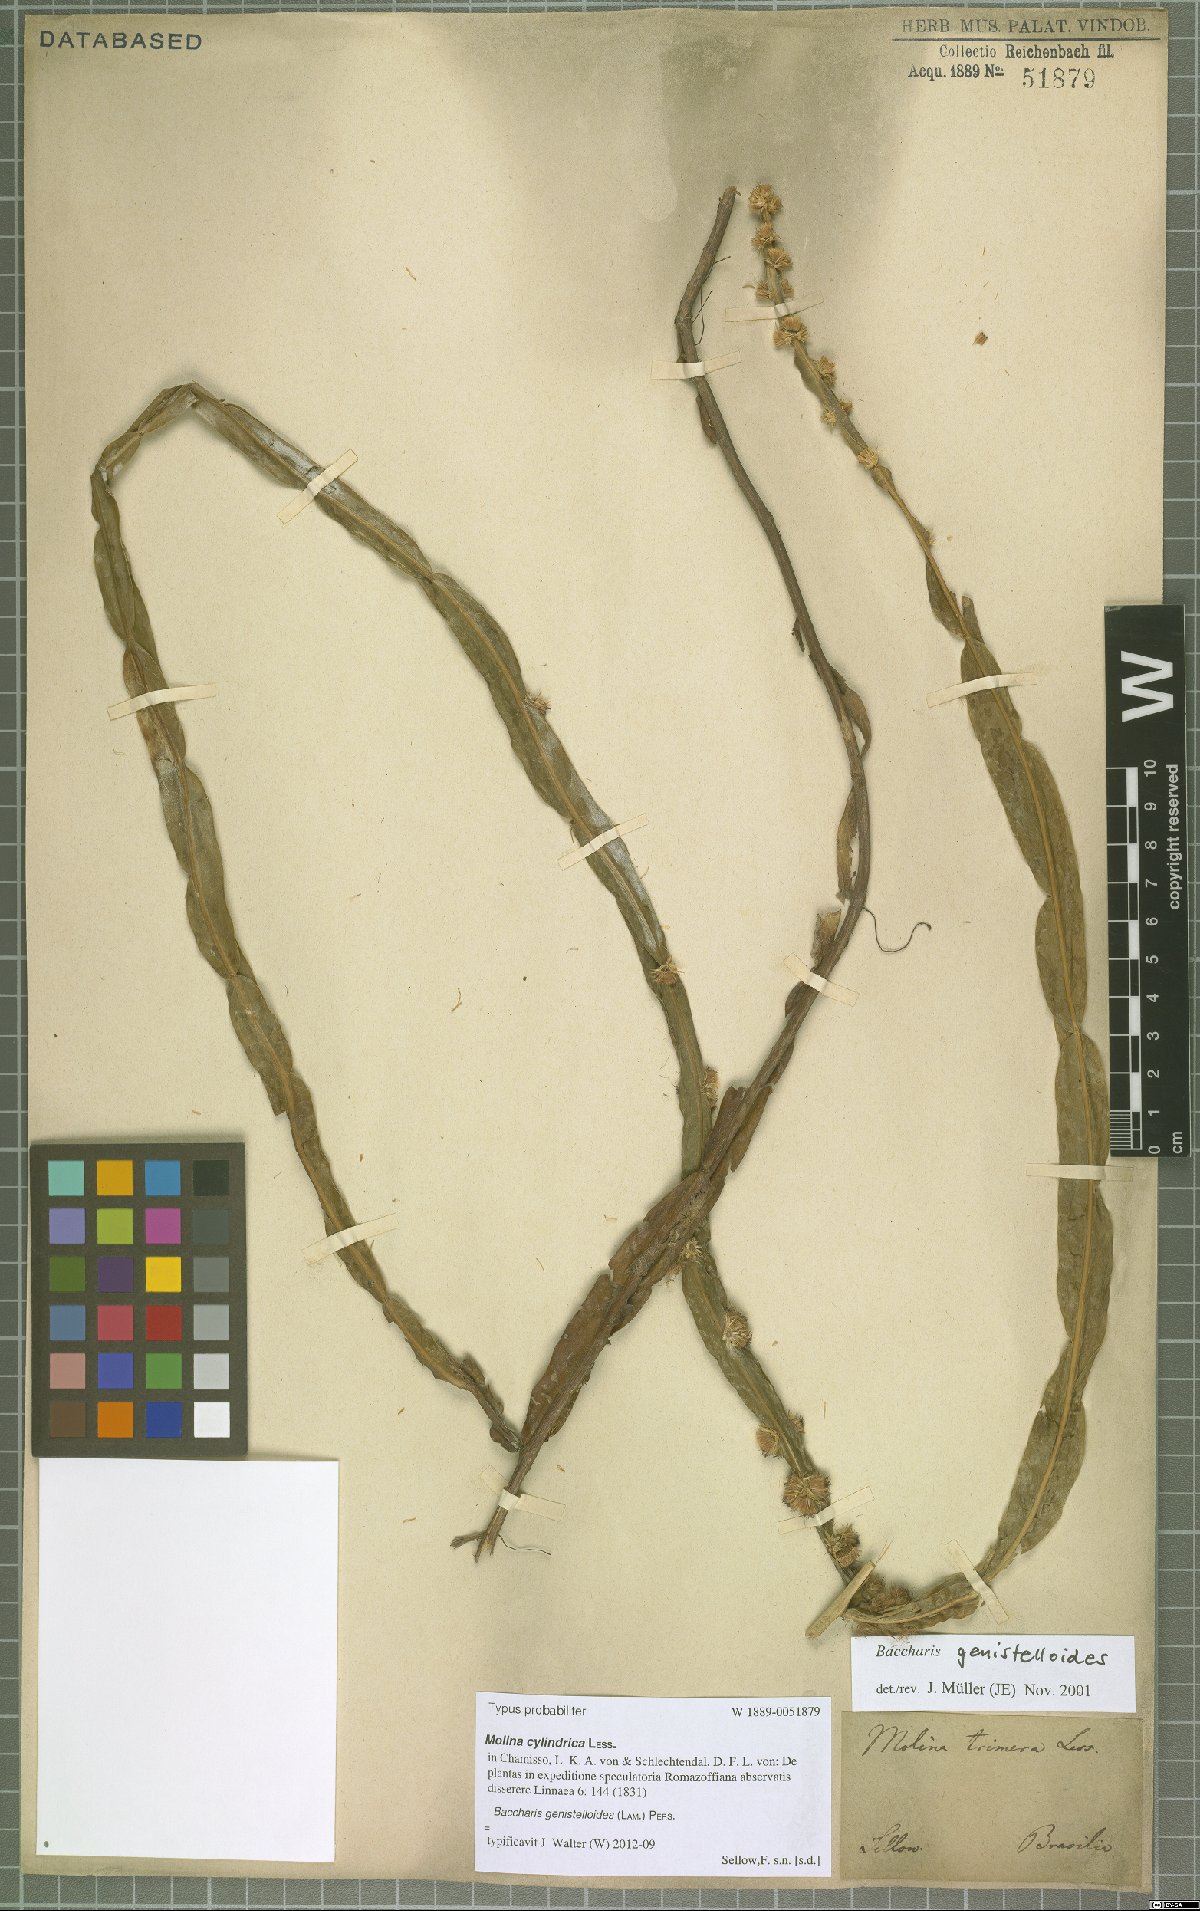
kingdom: Plantae
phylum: Tracheophyta
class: Magnoliopsida
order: Asterales
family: Asteraceae
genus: Baccharis
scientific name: Baccharis genistelloides
